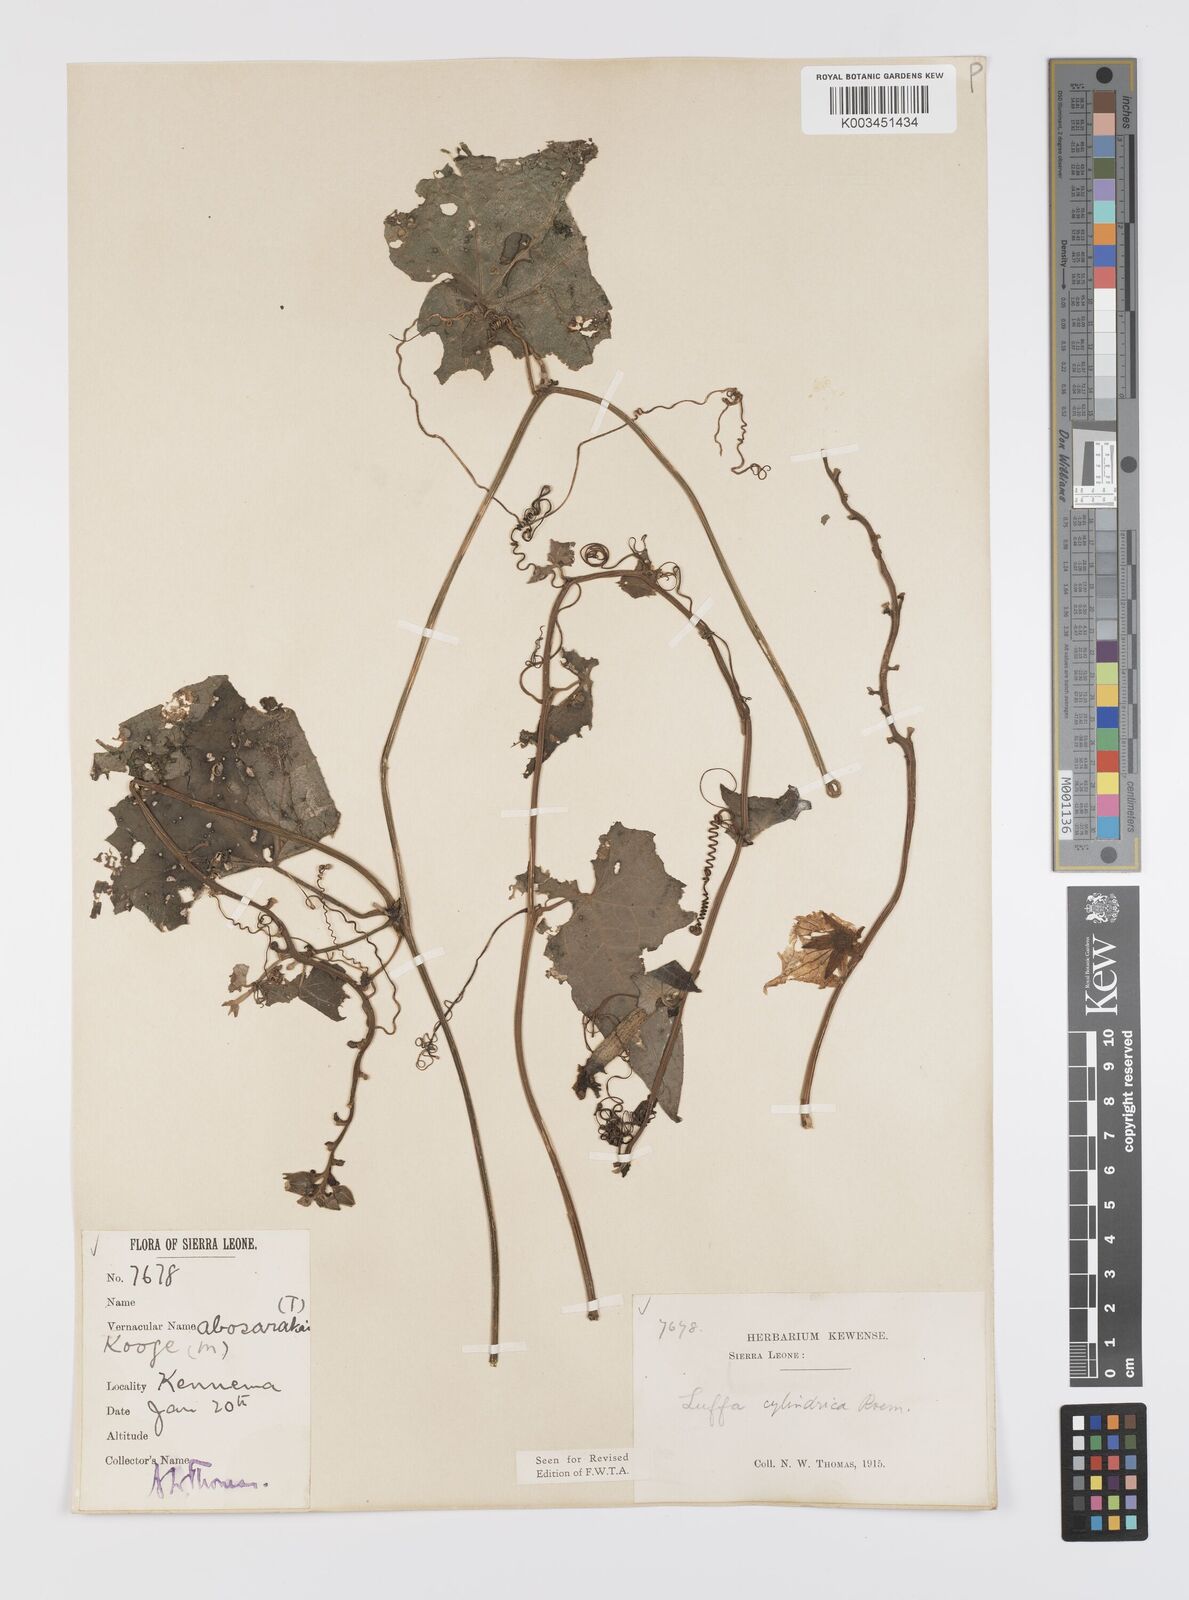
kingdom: Plantae
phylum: Tracheophyta
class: Magnoliopsida
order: Cucurbitales
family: Cucurbitaceae
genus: Luffa
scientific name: Luffa aegyptiaca
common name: Sponge gourd
